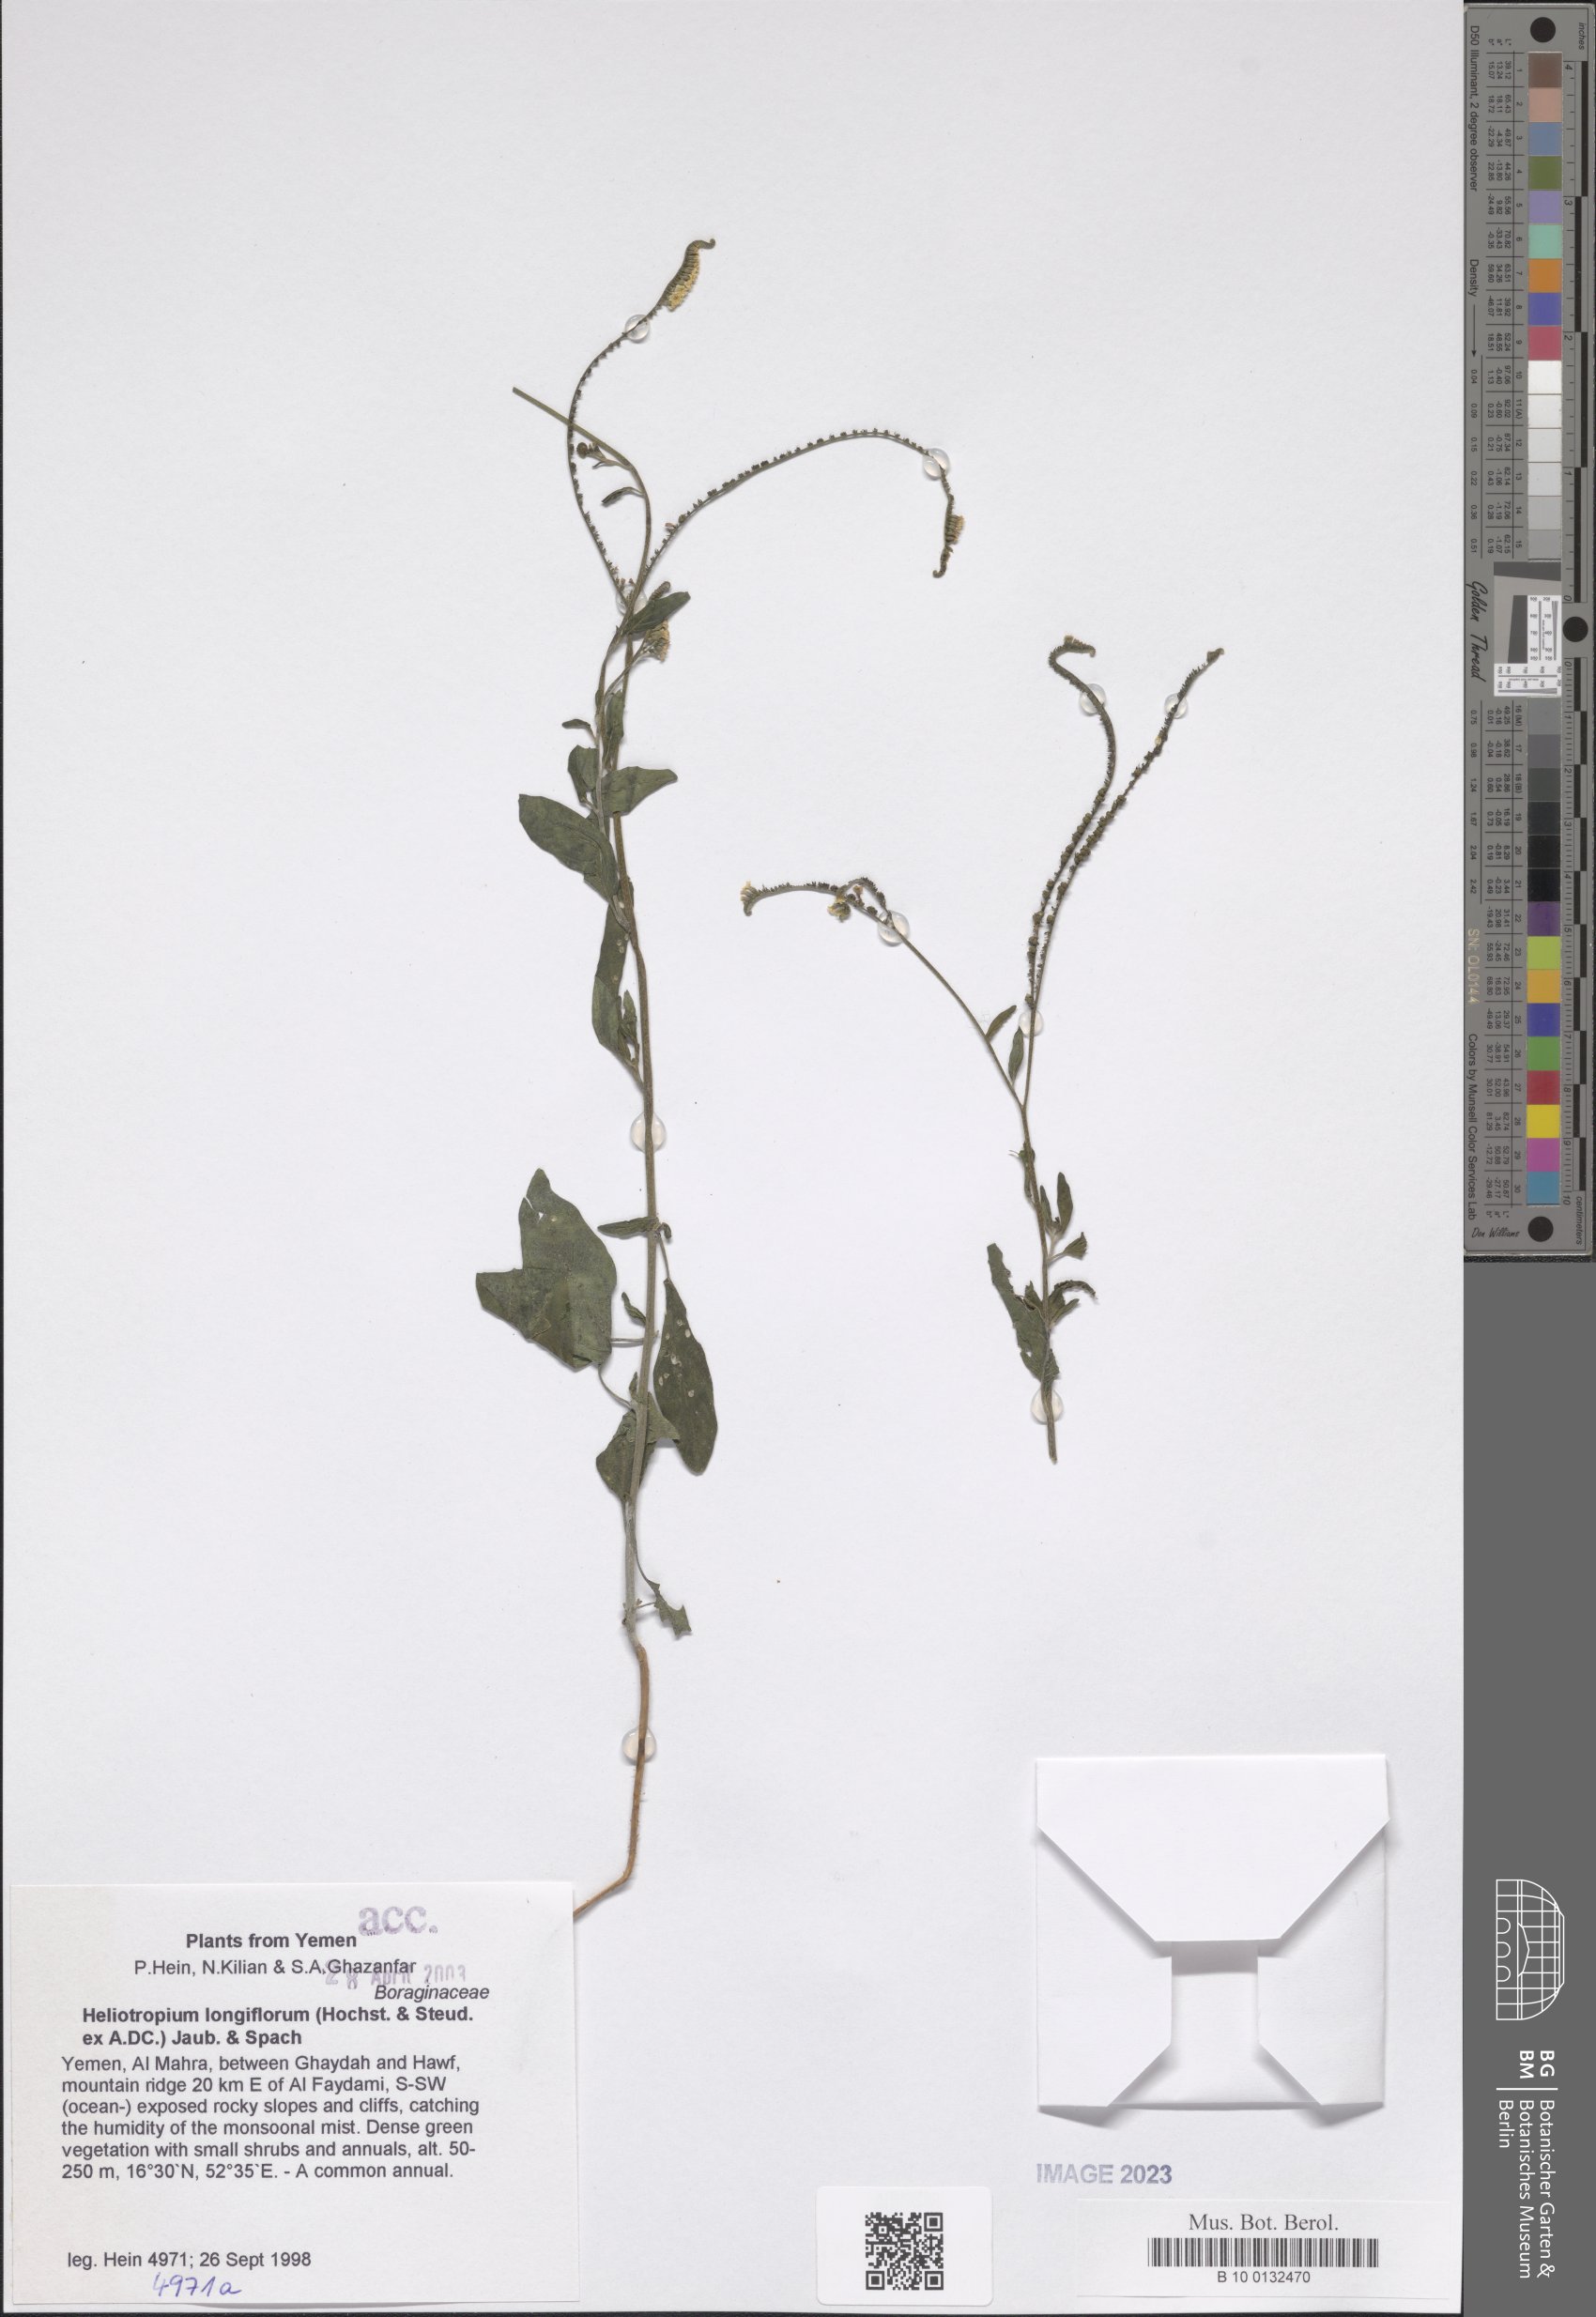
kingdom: Plantae
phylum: Tracheophyta
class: Magnoliopsida
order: Boraginales
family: Heliotropiaceae
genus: Heliotropium
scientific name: Heliotropium longiflorum
